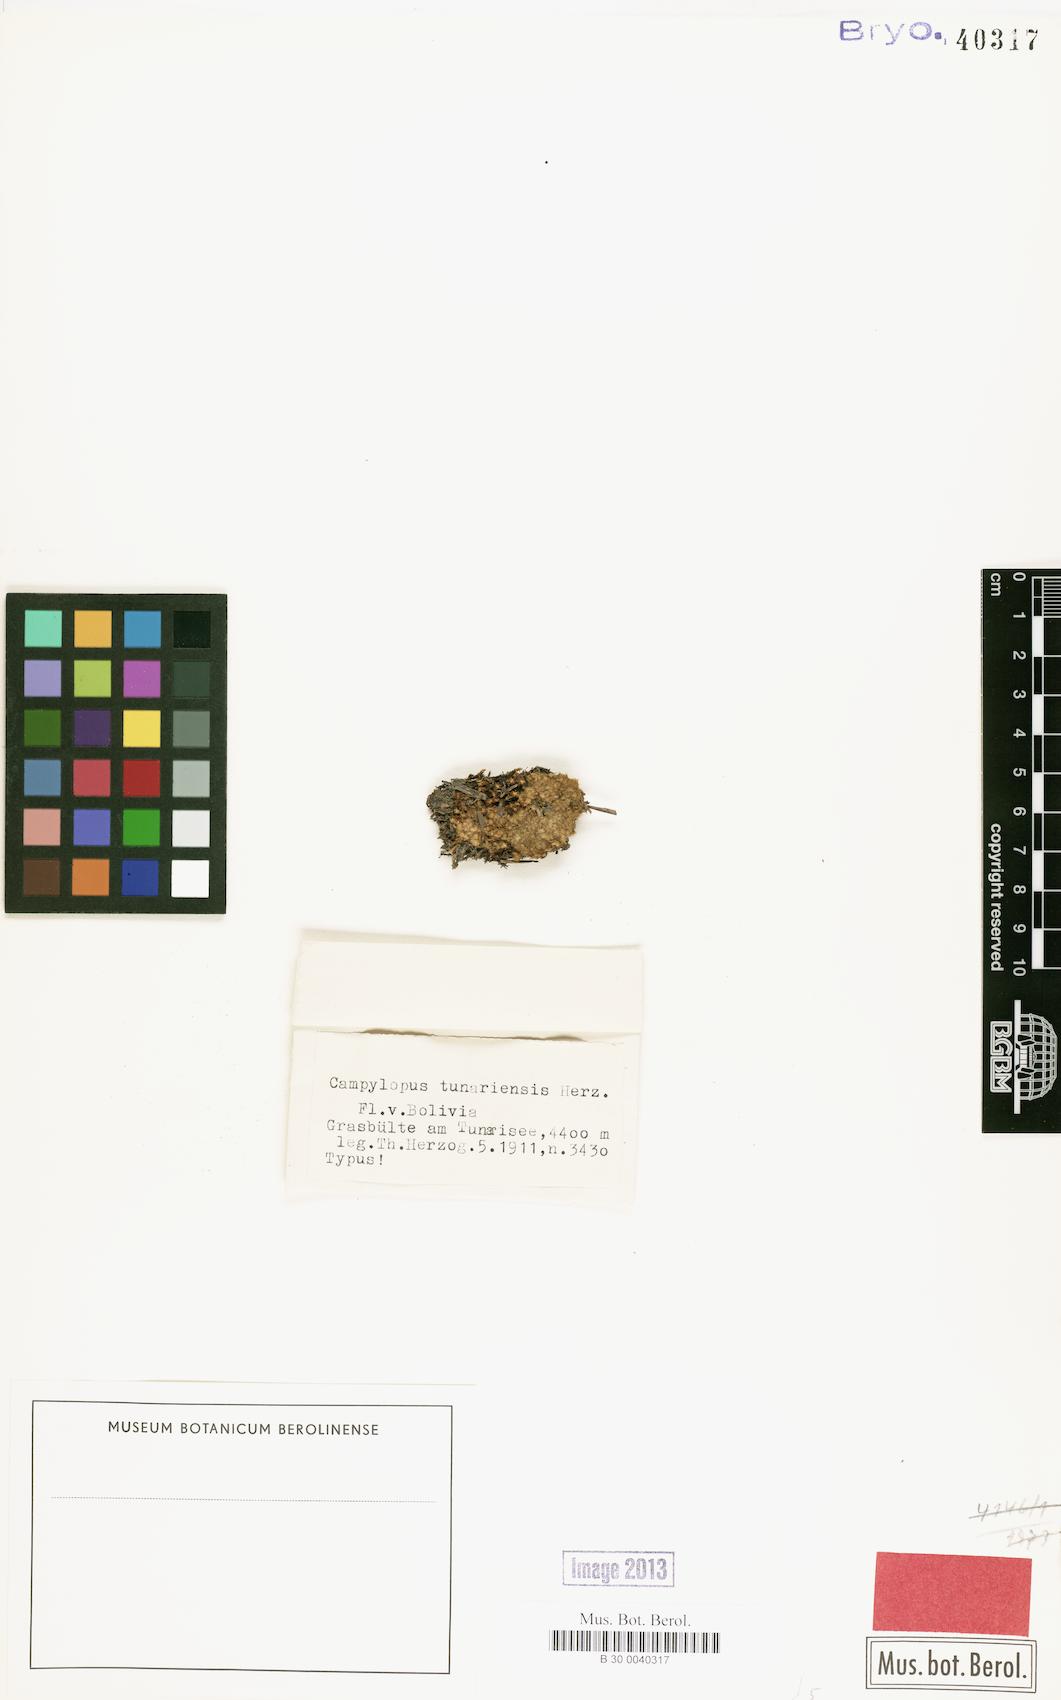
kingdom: Plantae
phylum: Bryophyta
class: Bryopsida
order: Dicranales
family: Leucobryaceae
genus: Campylopus
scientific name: Campylopus fragilis
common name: Brittle swan-neck moss
